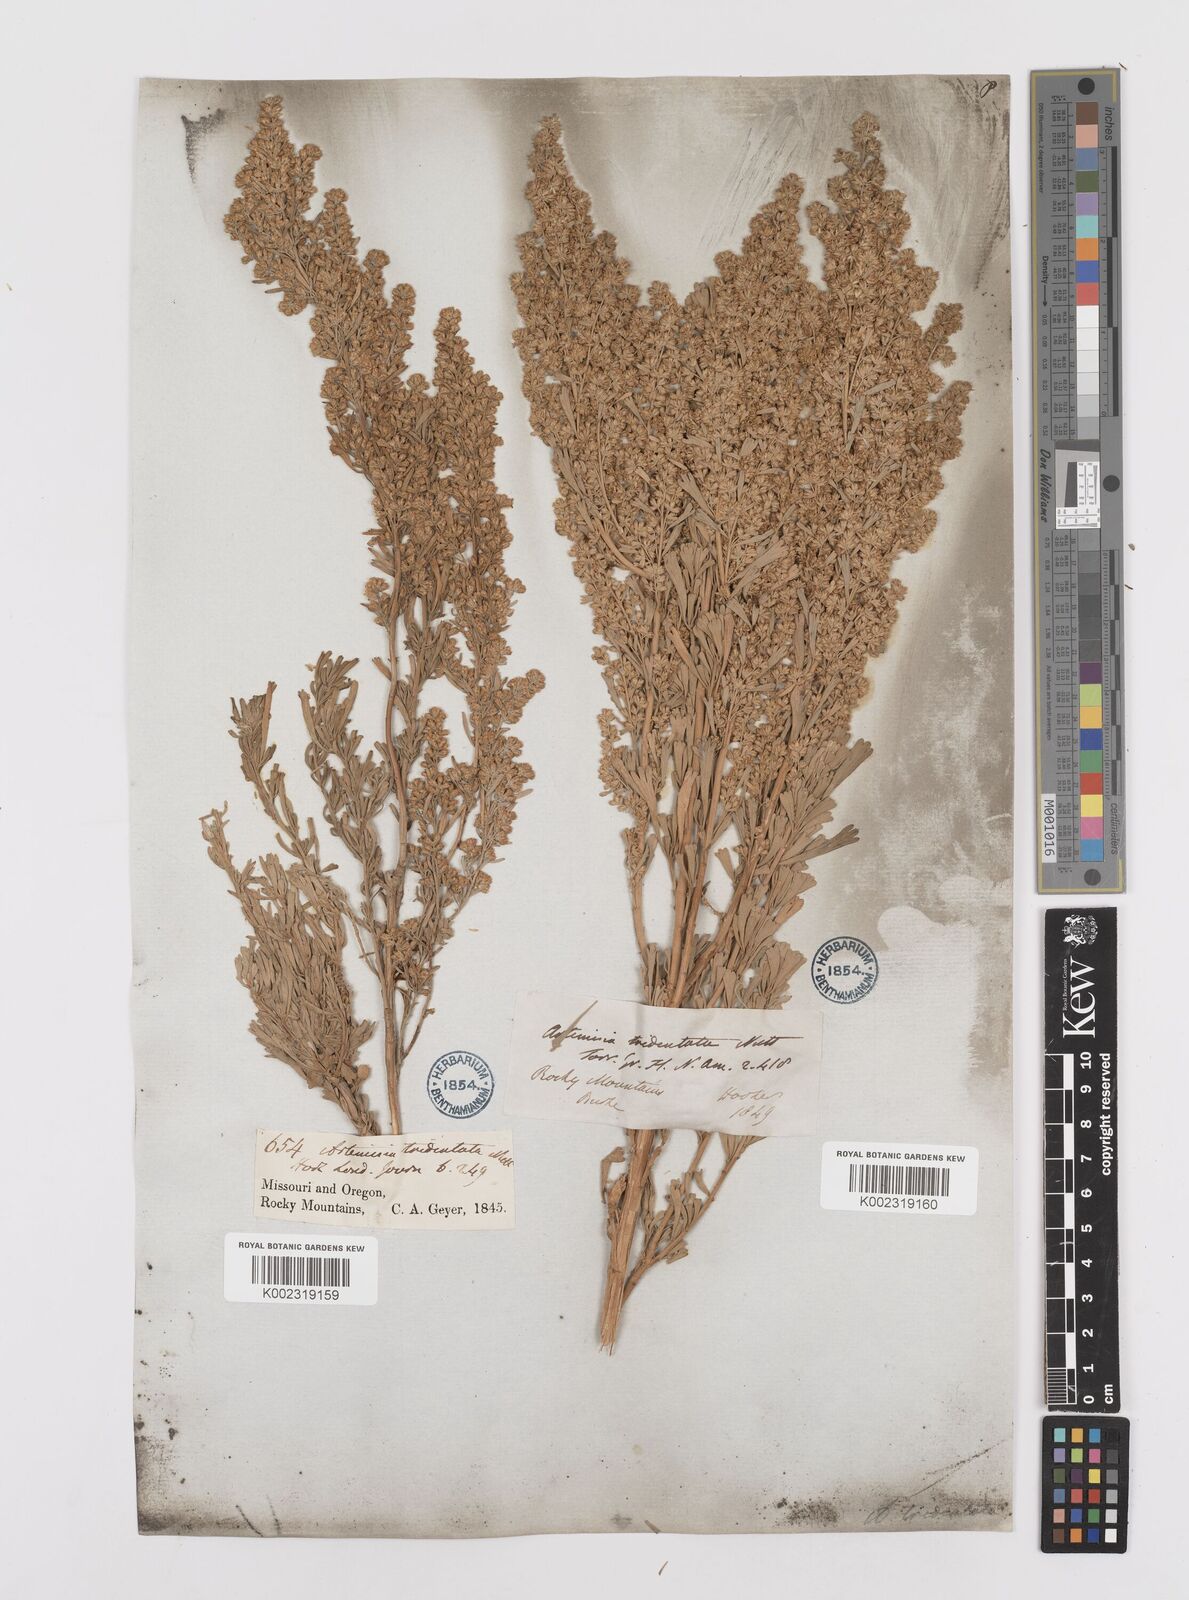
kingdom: Plantae
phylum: Tracheophyta
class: Magnoliopsida
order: Asterales
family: Asteraceae
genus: Artemisia
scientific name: Artemisia tridentata
